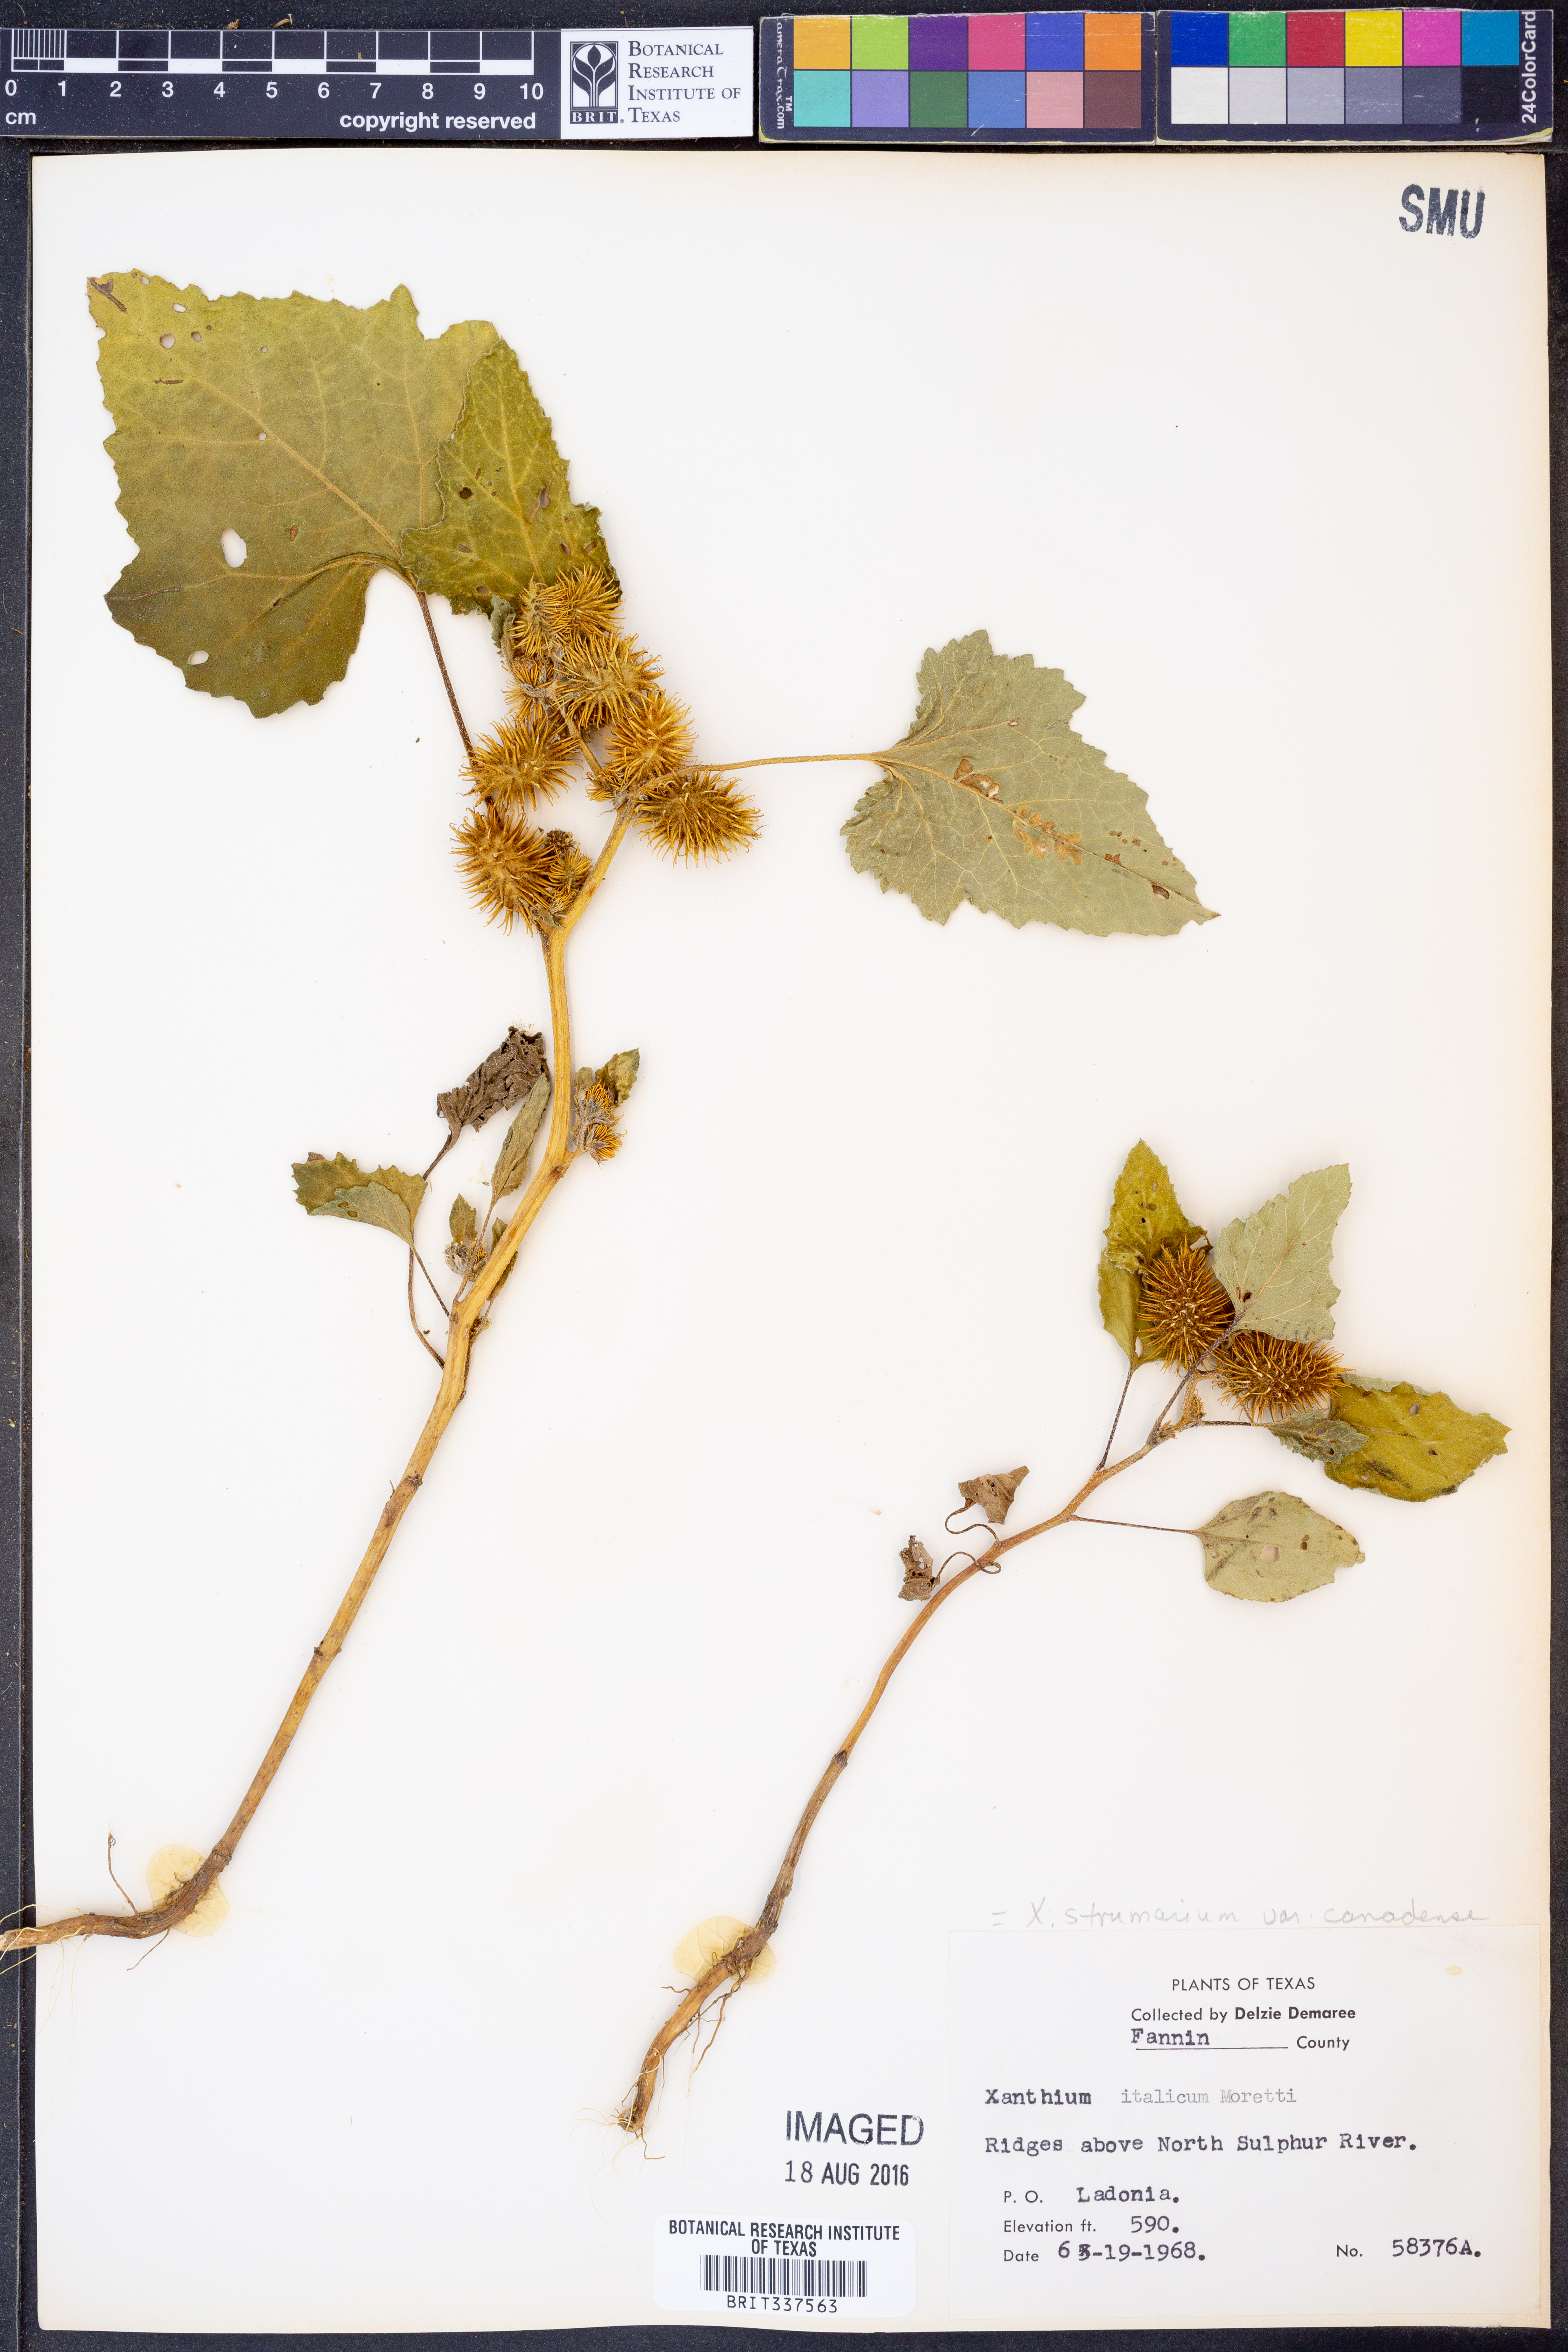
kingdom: Plantae
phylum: Tracheophyta
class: Magnoliopsida
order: Asterales
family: Asteraceae
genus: Xanthium
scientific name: Xanthium orientale
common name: Californian burr
